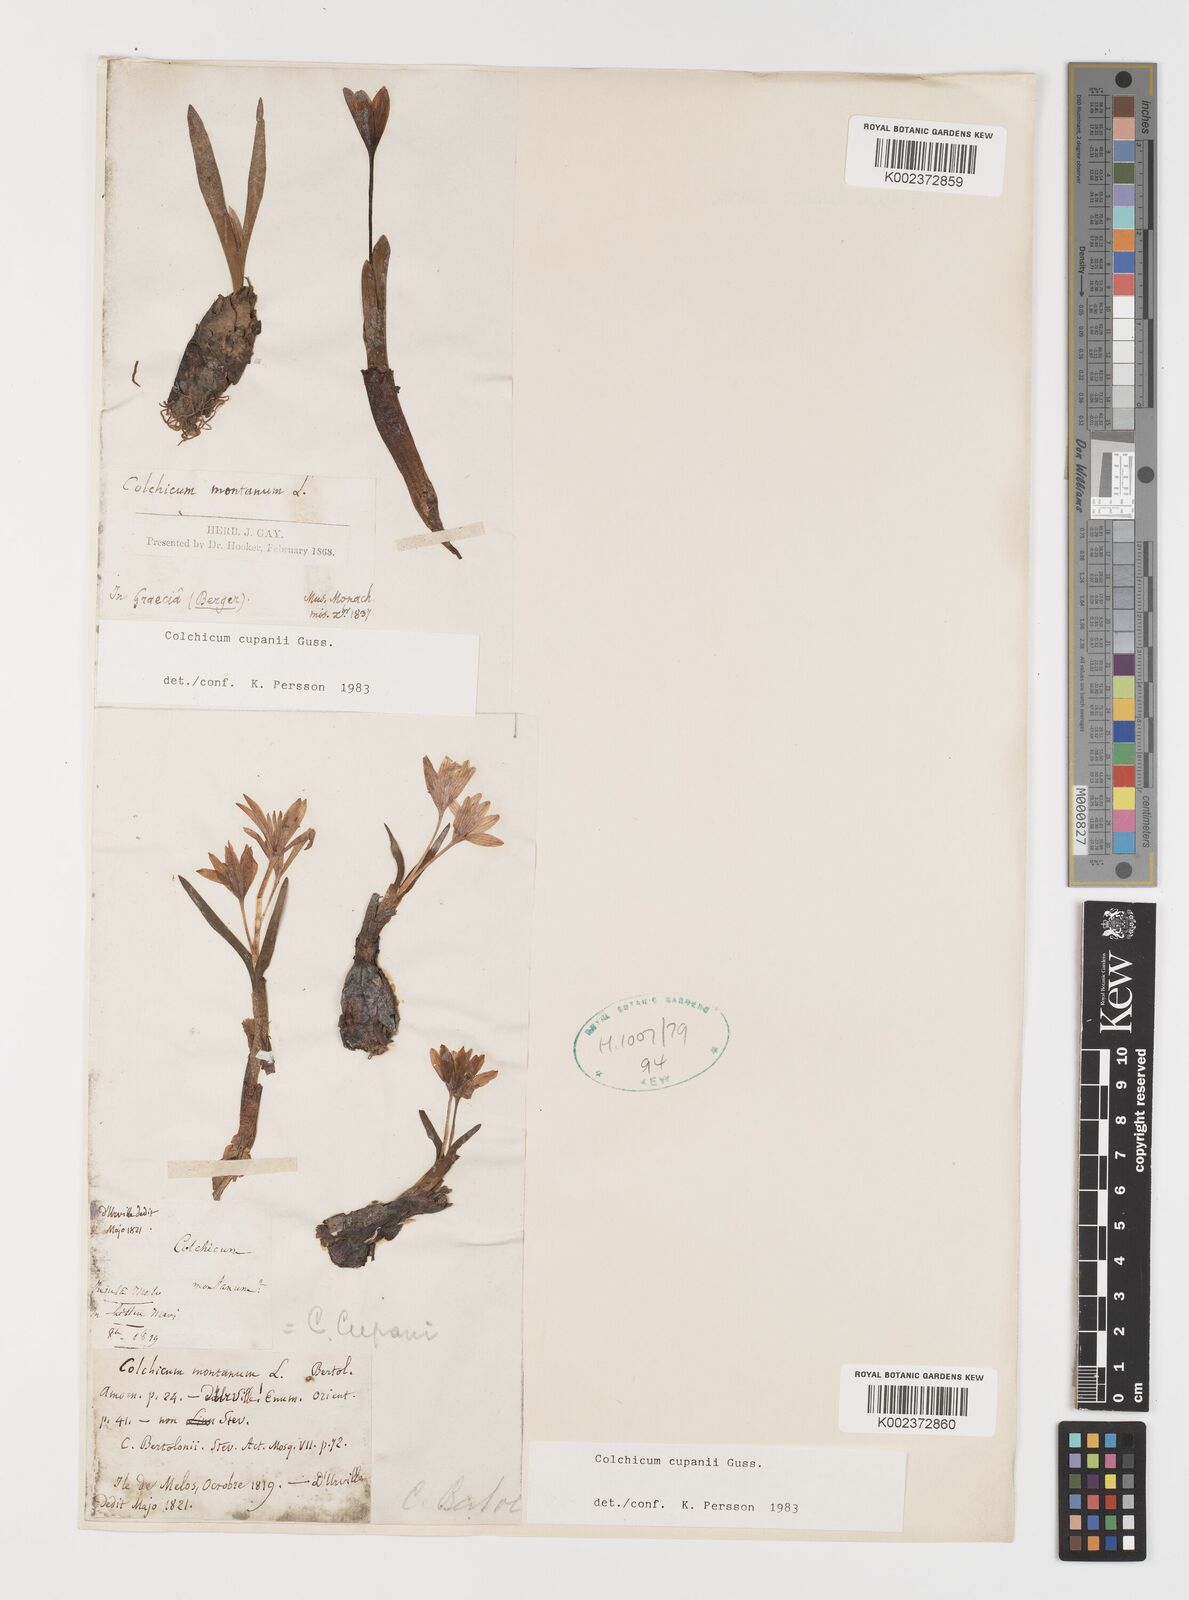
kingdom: Plantae
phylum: Tracheophyta
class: Liliopsida
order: Liliales
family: Colchicaceae
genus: Colchicum
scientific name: Colchicum cupanii
